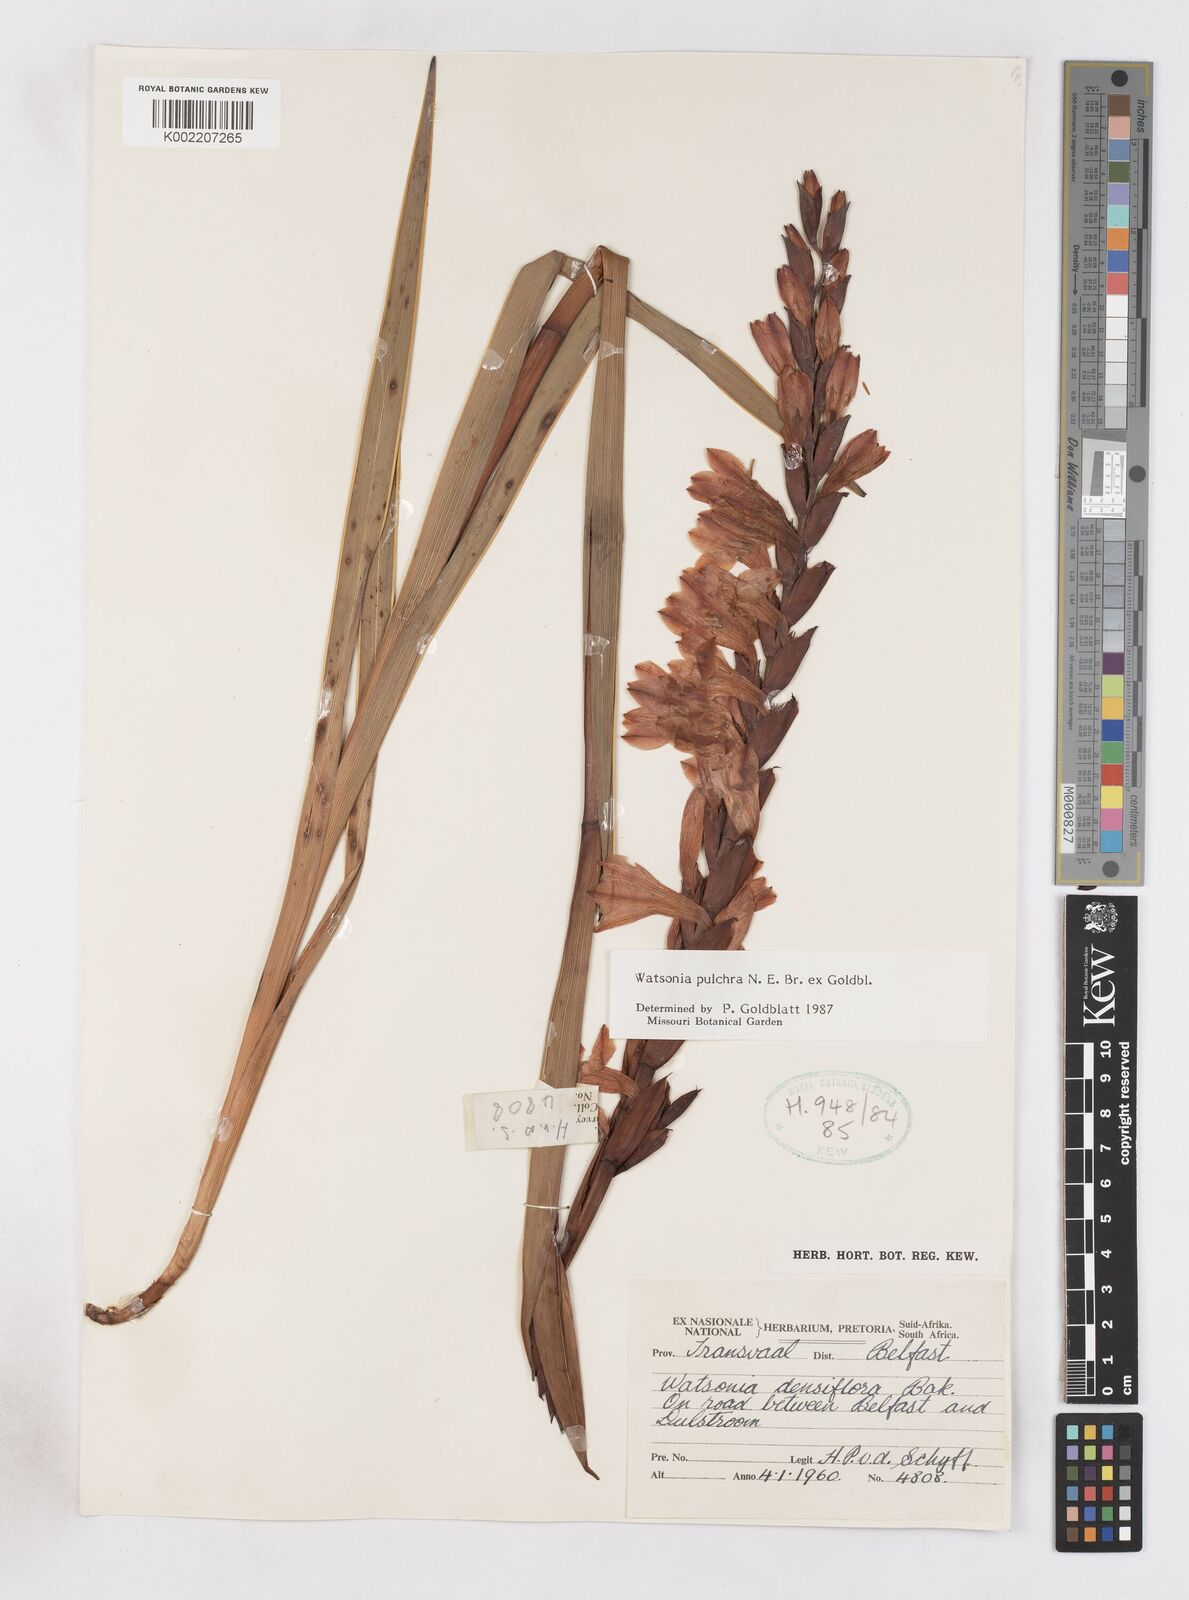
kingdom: Plantae
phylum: Tracheophyta
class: Liliopsida
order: Asparagales
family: Iridaceae
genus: Watsonia
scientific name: Watsonia pulchra
